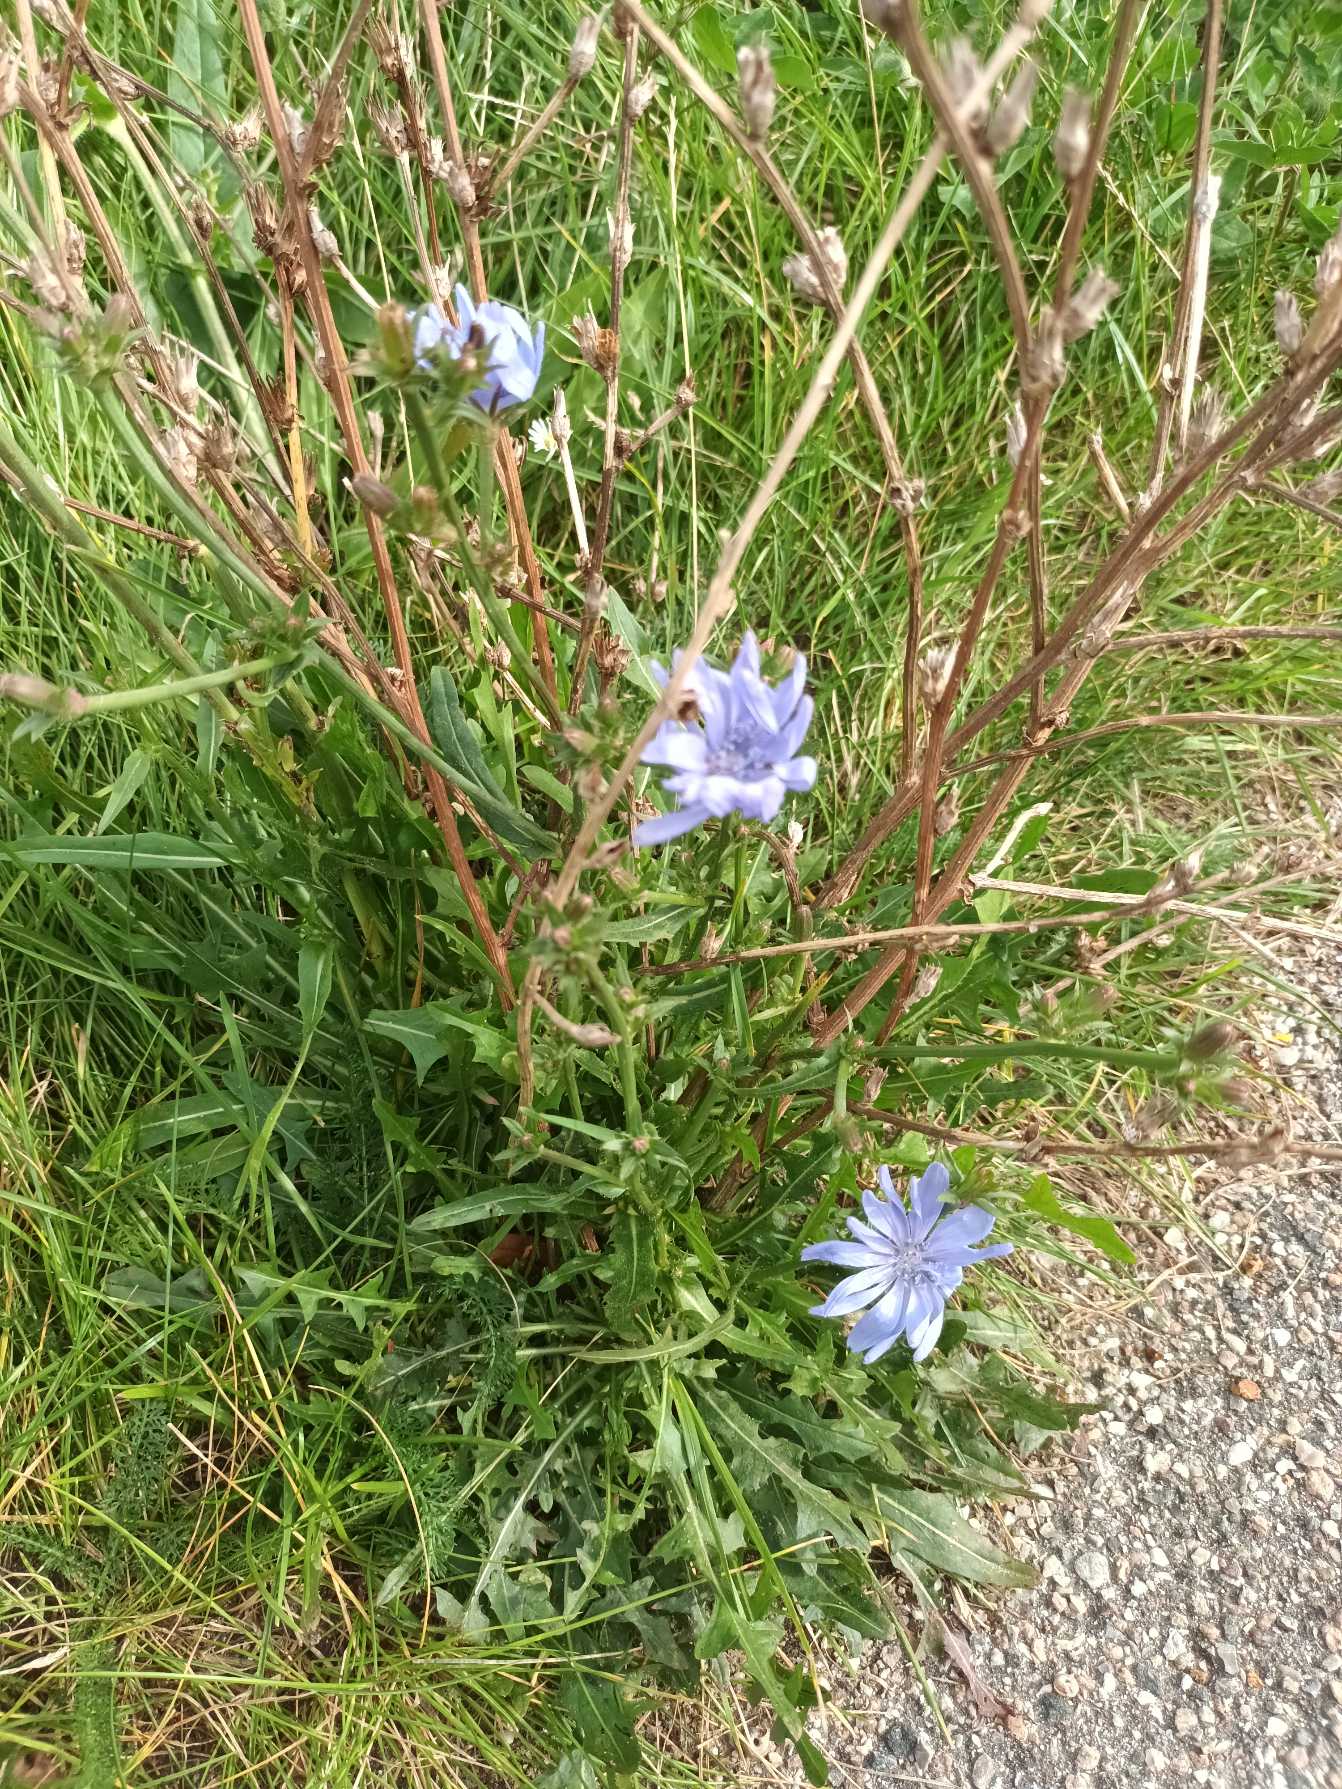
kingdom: Plantae
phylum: Tracheophyta
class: Magnoliopsida
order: Asterales
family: Asteraceae
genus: Cichorium
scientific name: Cichorium intybus
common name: Cikorie
